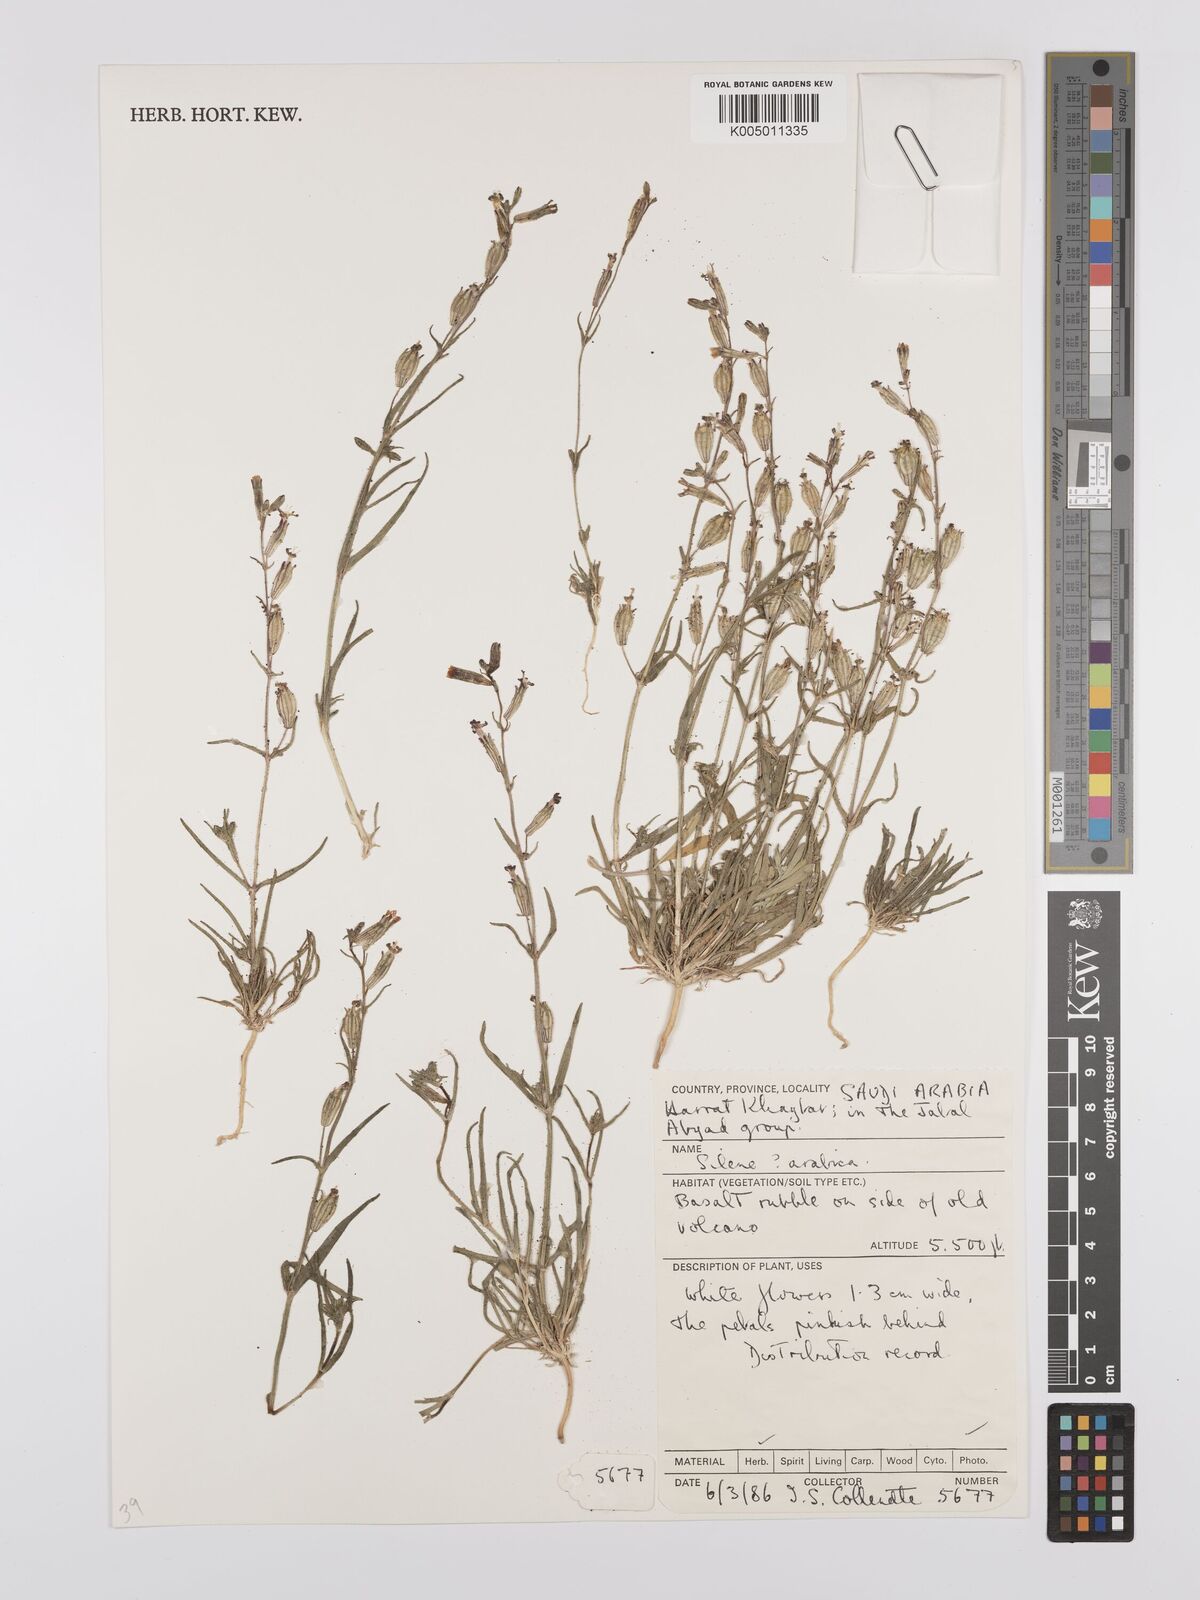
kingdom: Plantae
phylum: Tracheophyta
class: Magnoliopsida
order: Caryophyllales
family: Caryophyllaceae
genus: Silene
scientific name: Silene arabica
